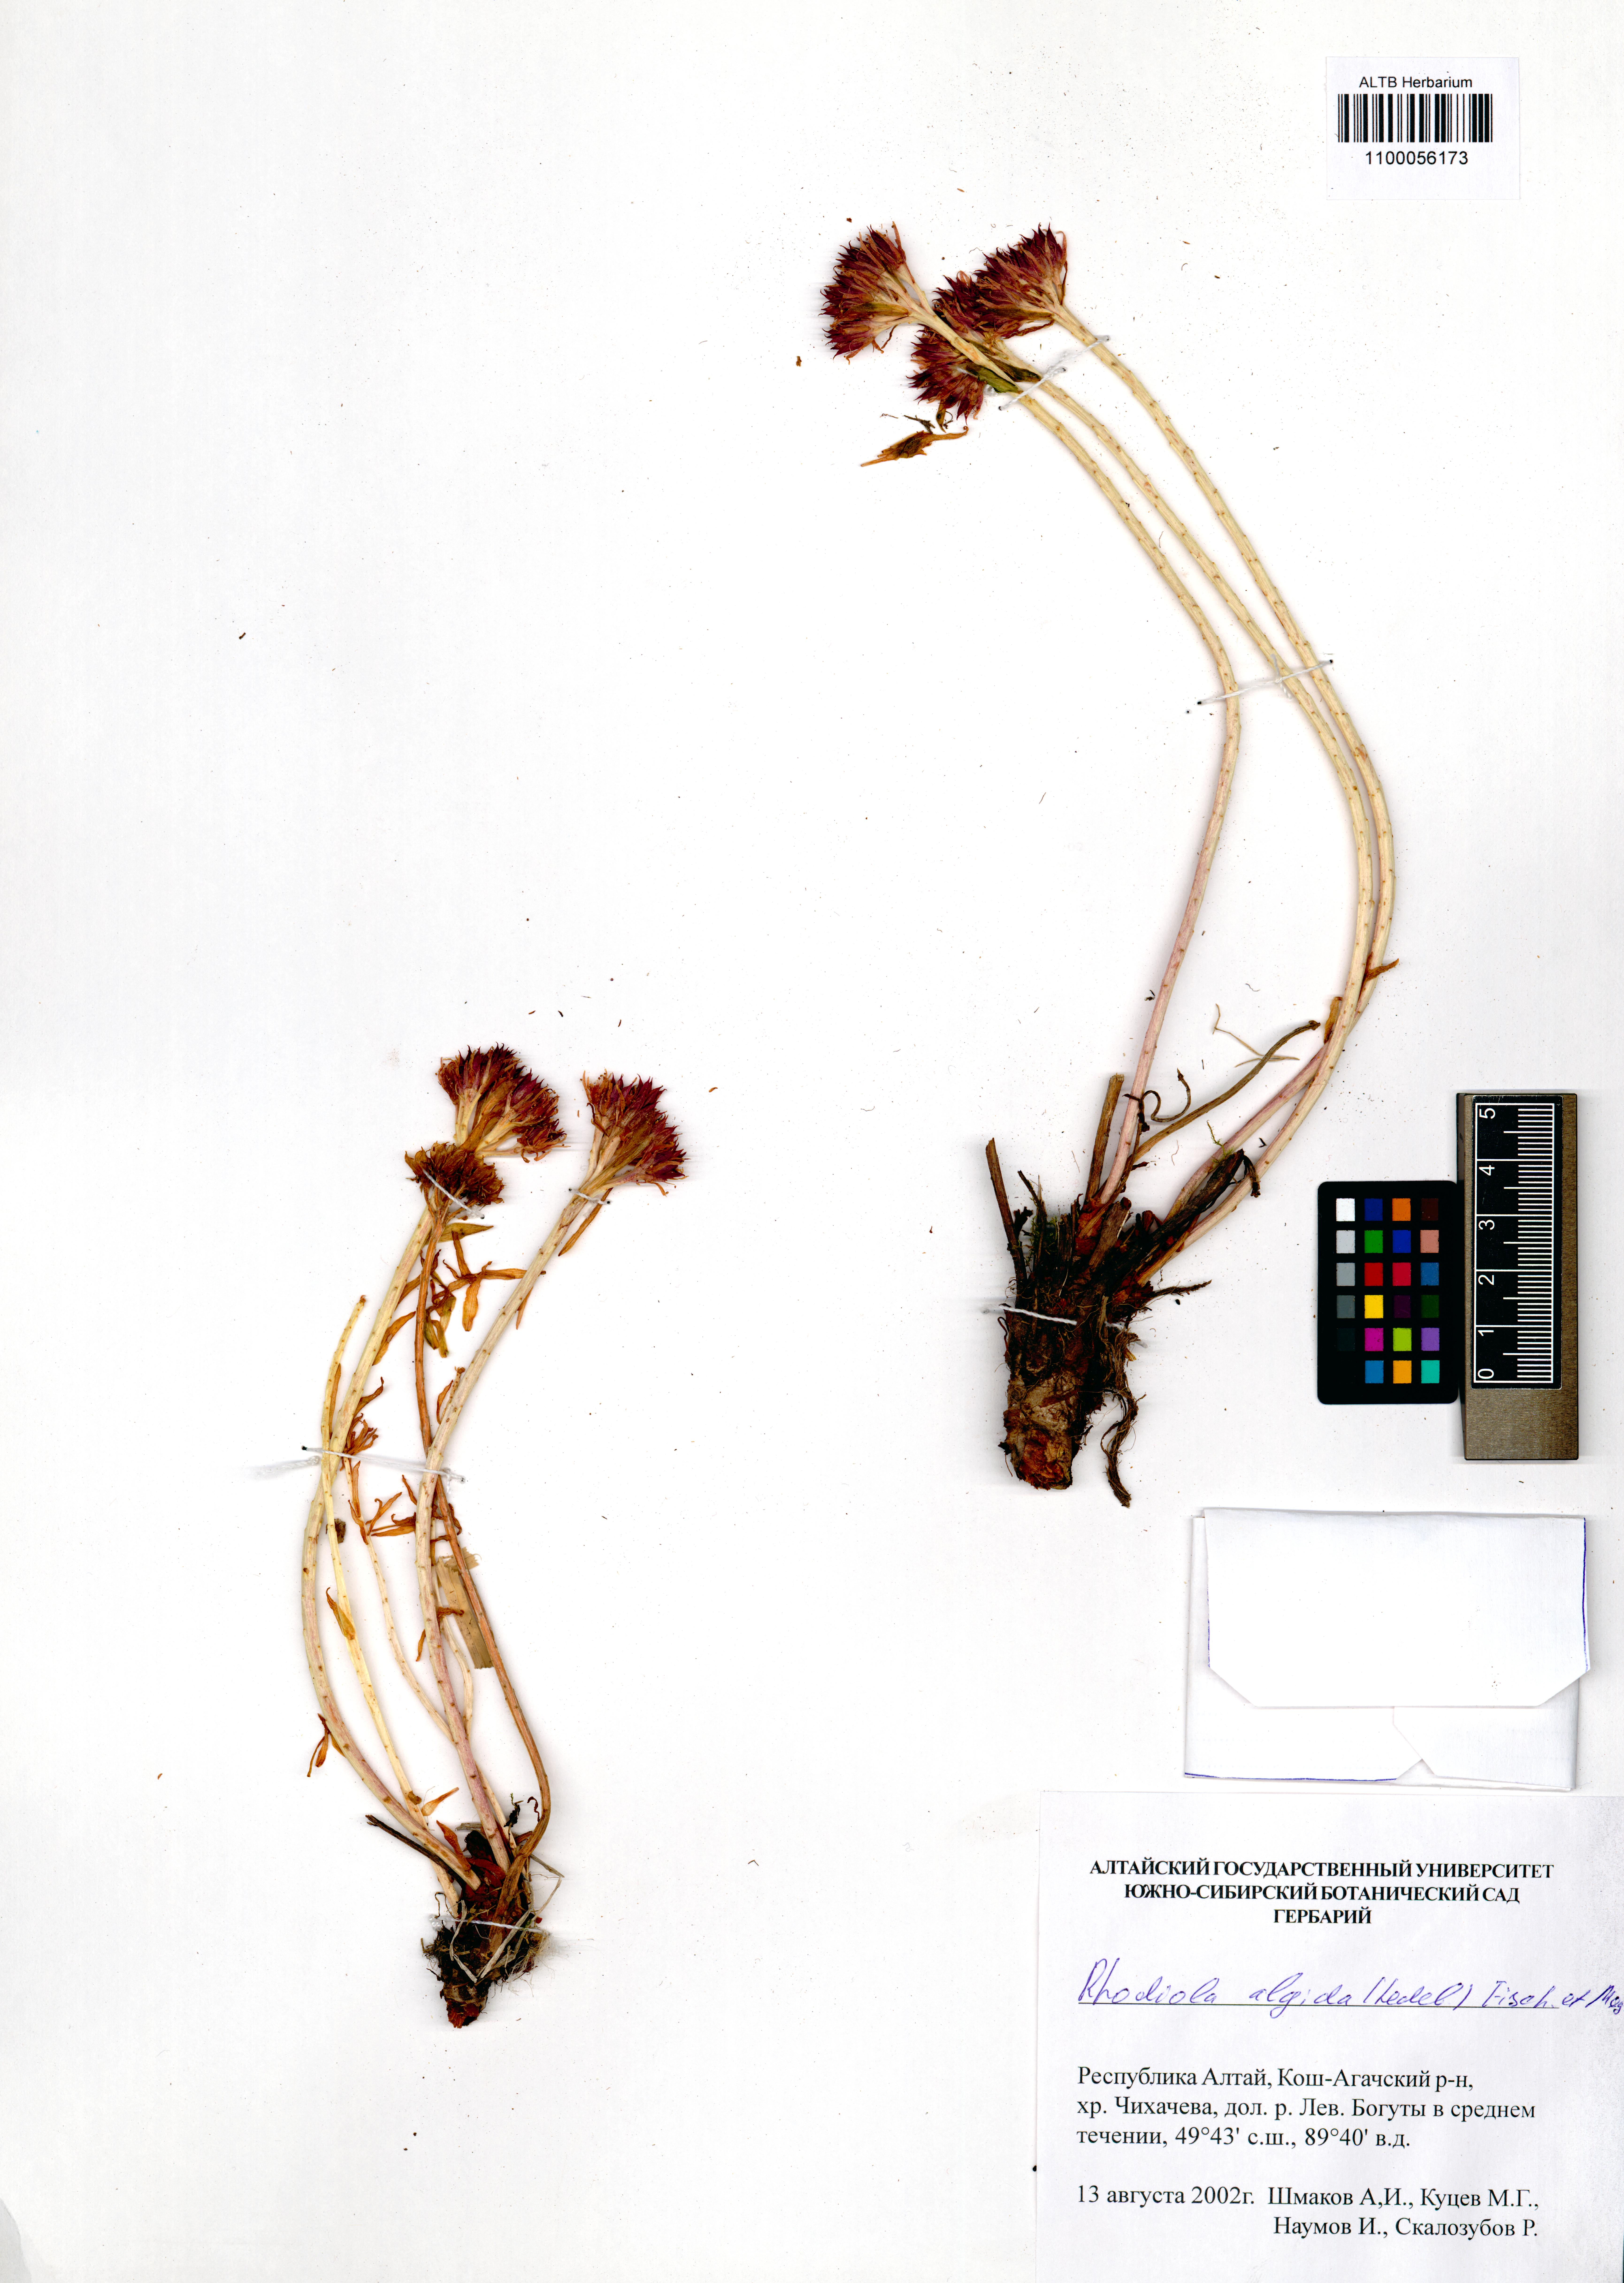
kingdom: Plantae
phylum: Tracheophyta
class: Magnoliopsida
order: Saxifragales
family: Crassulaceae
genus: Rhodiola
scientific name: Rhodiola algida
